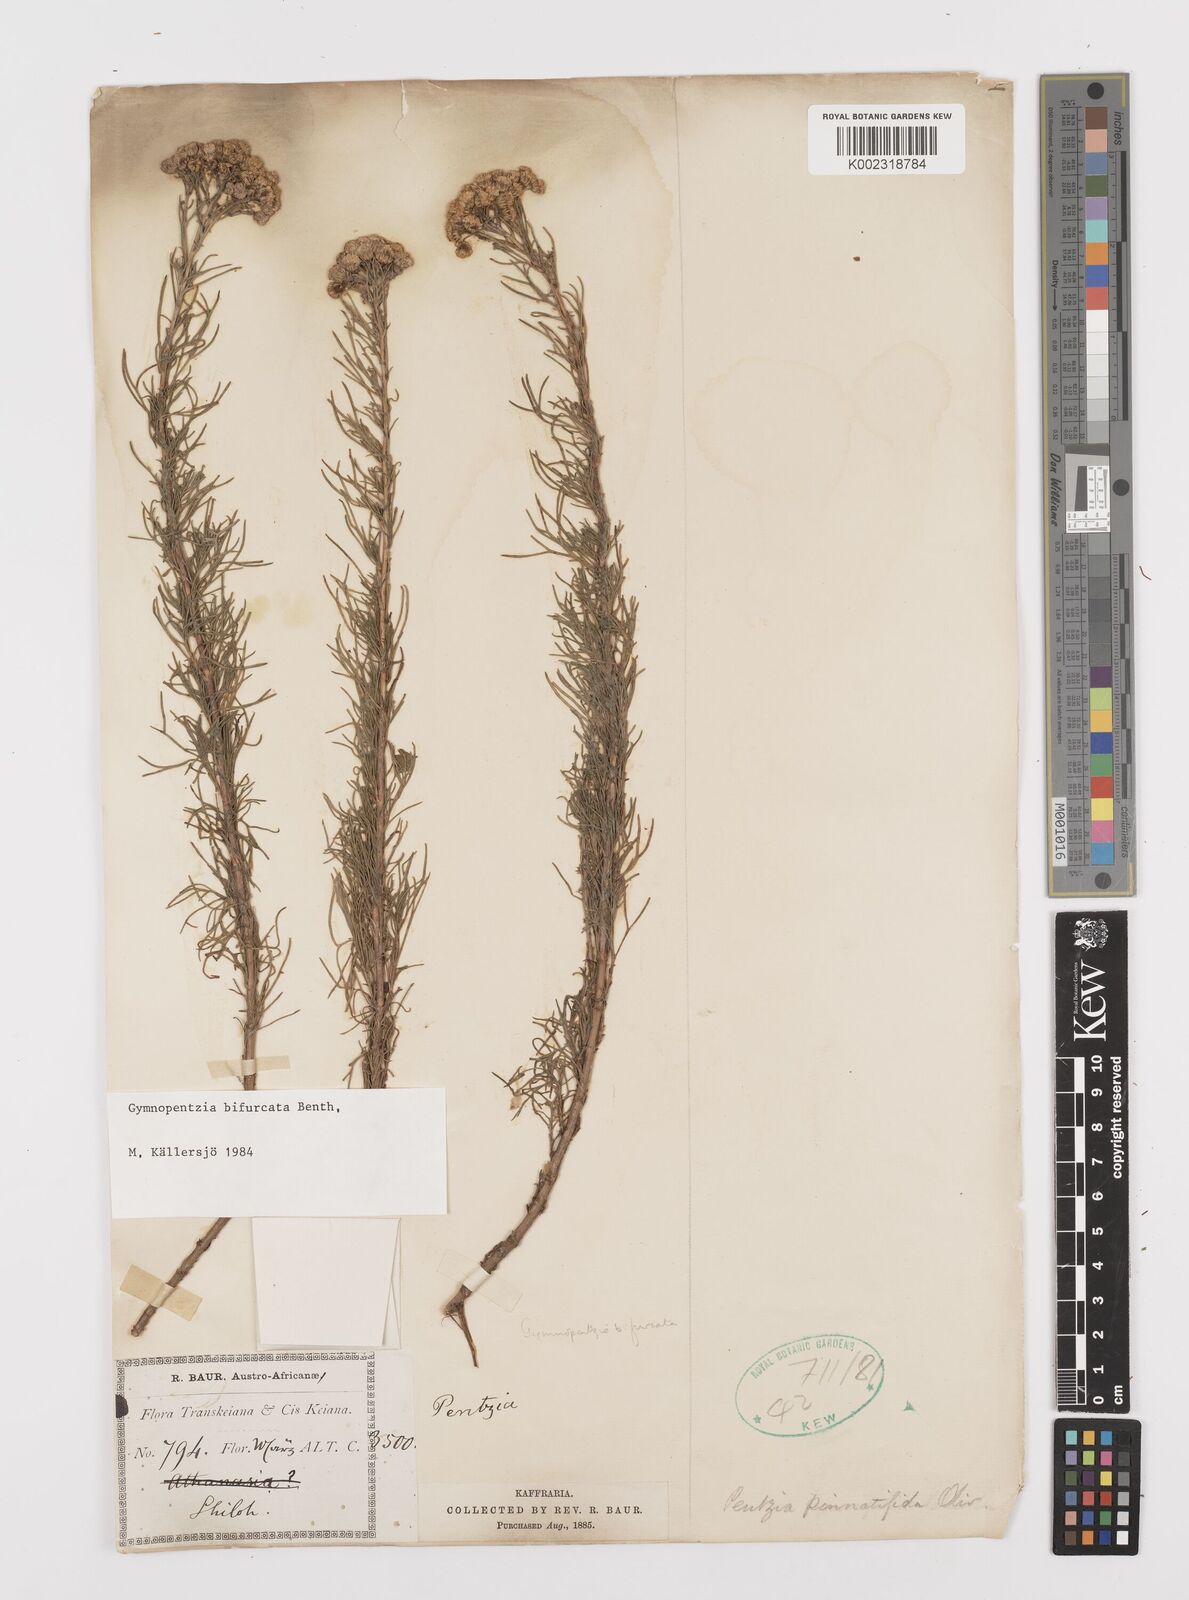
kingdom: Plantae
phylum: Tracheophyta
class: Magnoliopsida
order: Asterales
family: Asteraceae
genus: Gymnopentzia
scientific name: Gymnopentzia bifurcata
